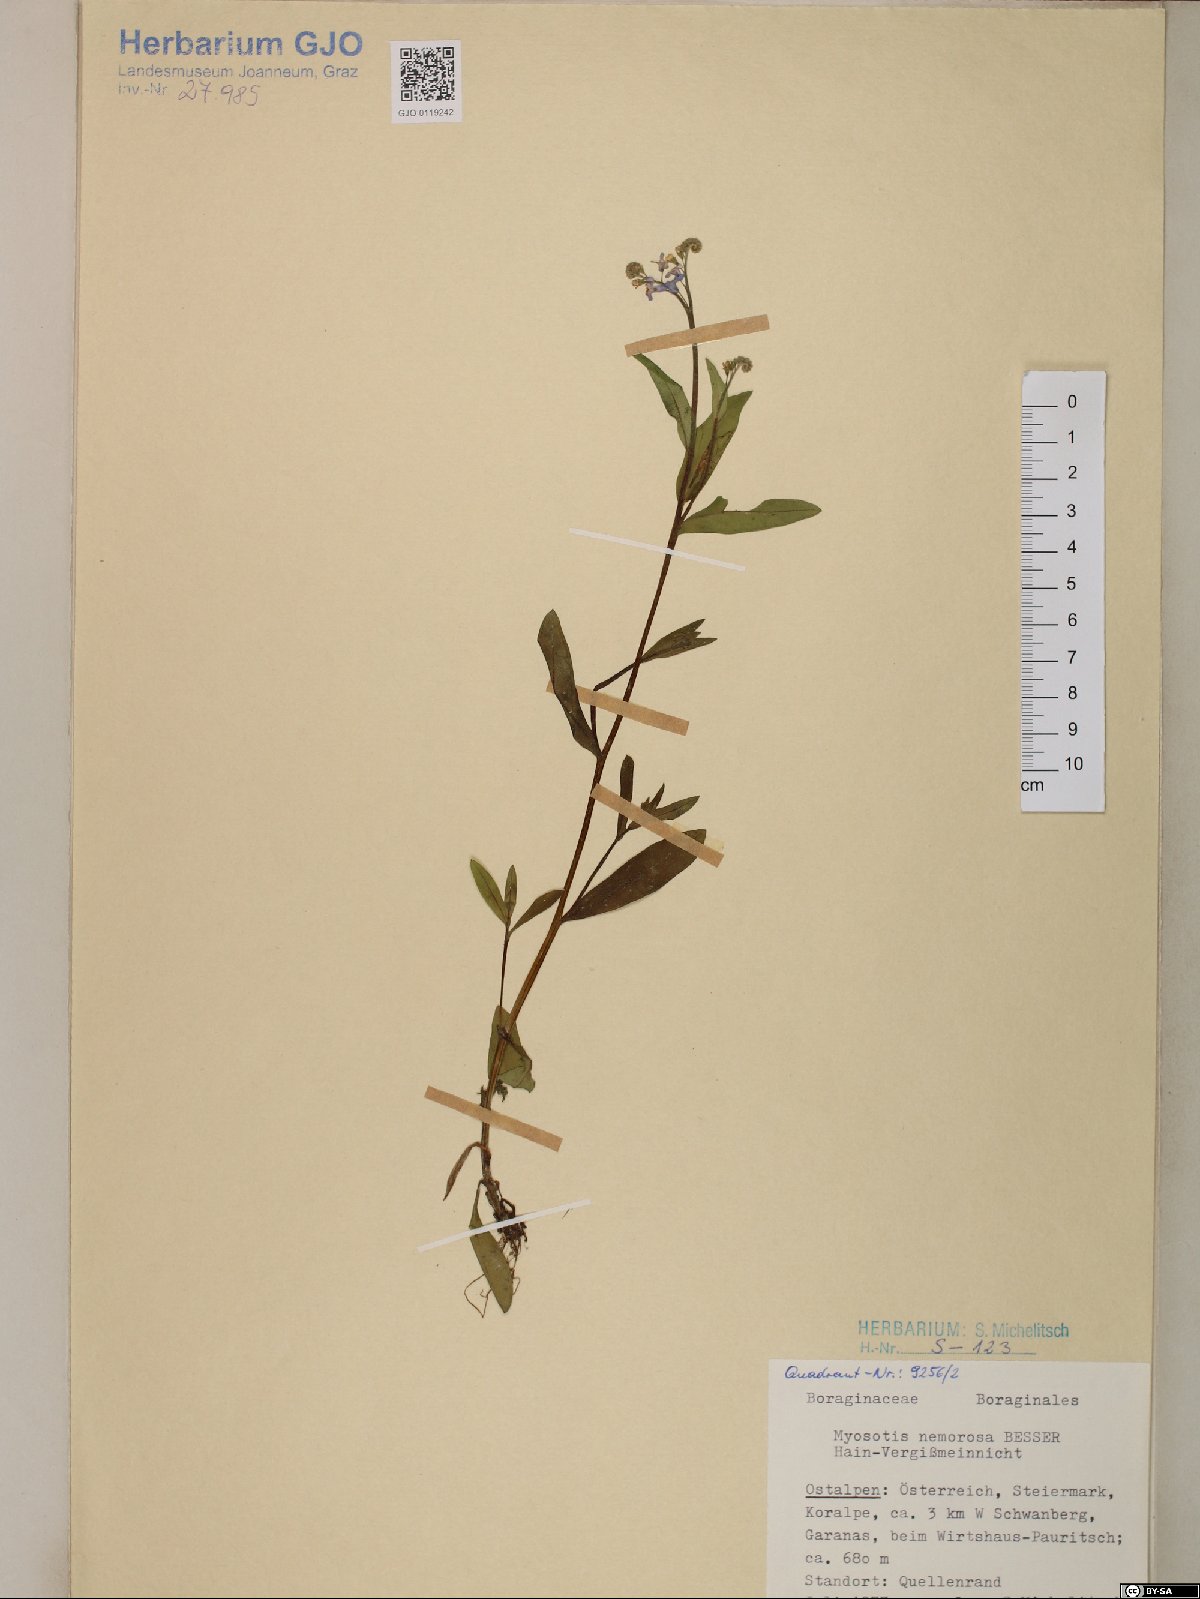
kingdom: Plantae
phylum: Tracheophyta
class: Magnoliopsida
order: Boraginales
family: Boraginaceae
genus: Myosotis
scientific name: Myosotis nemorosa
